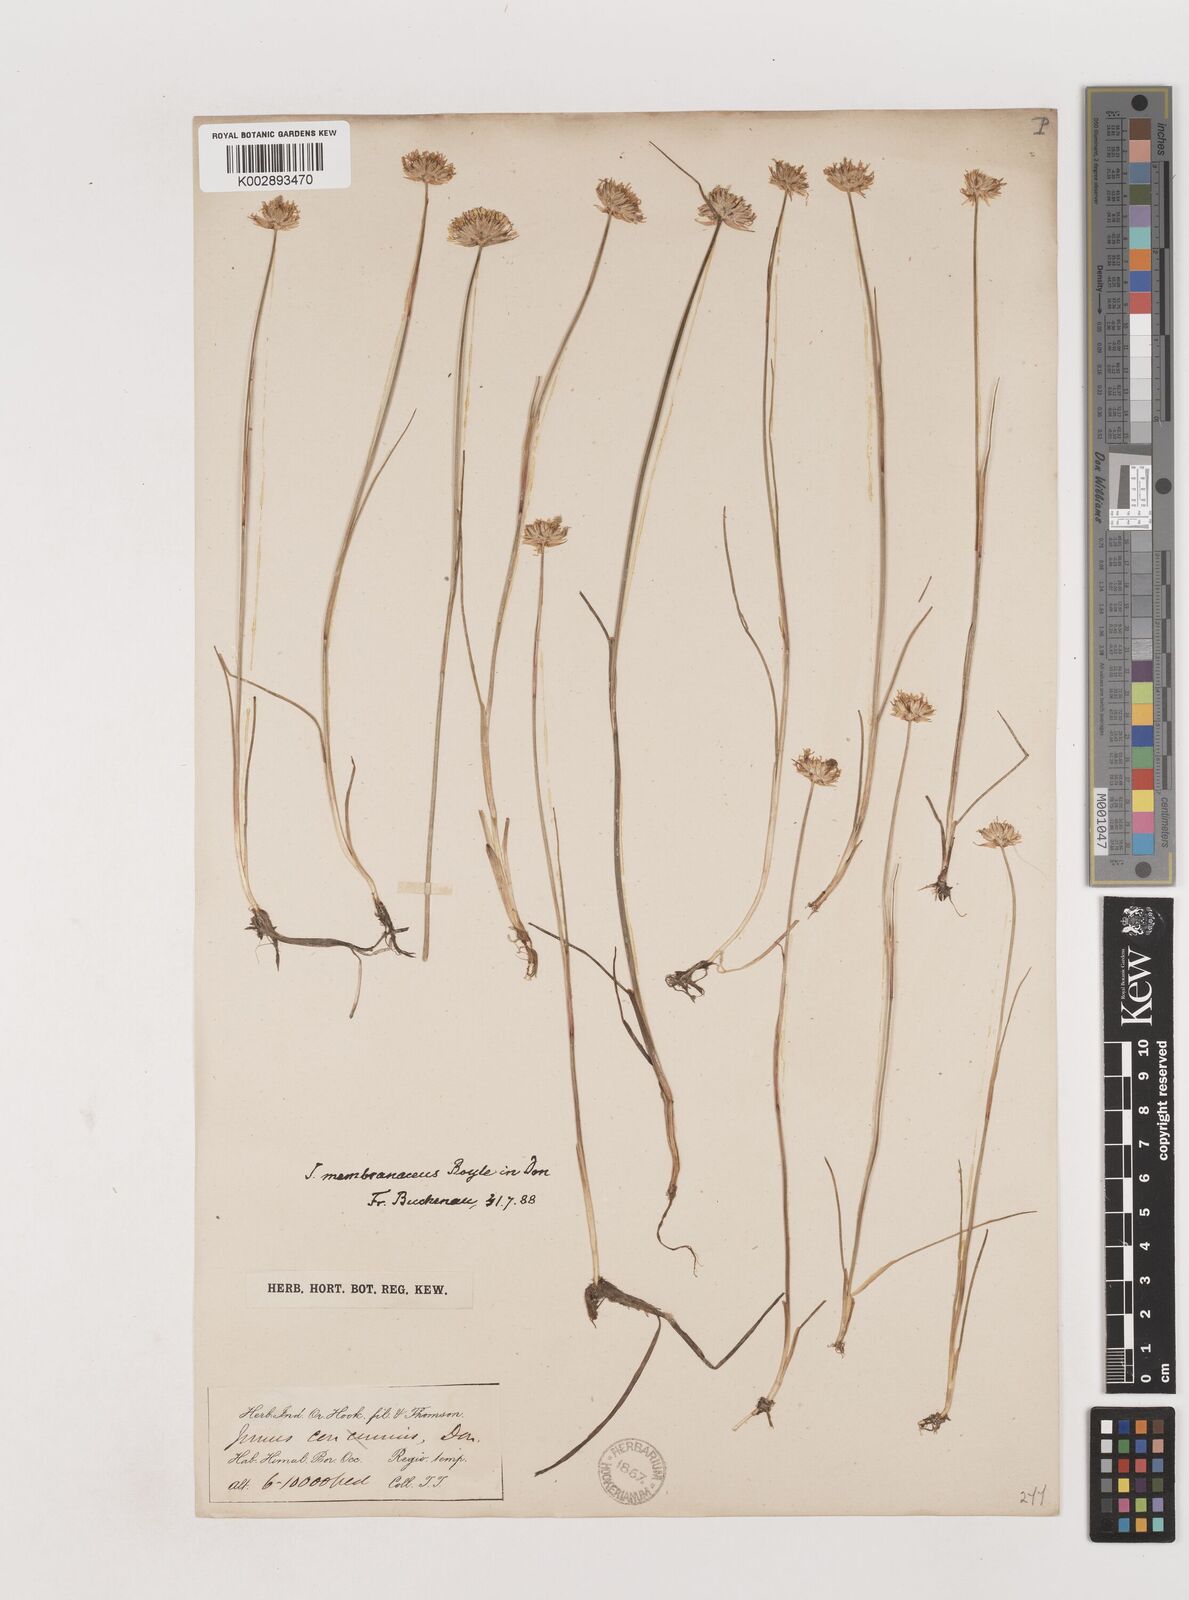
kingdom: Plantae
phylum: Tracheophyta
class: Liliopsida
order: Poales
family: Juncaceae
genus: Juncus
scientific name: Juncus membranaceus
